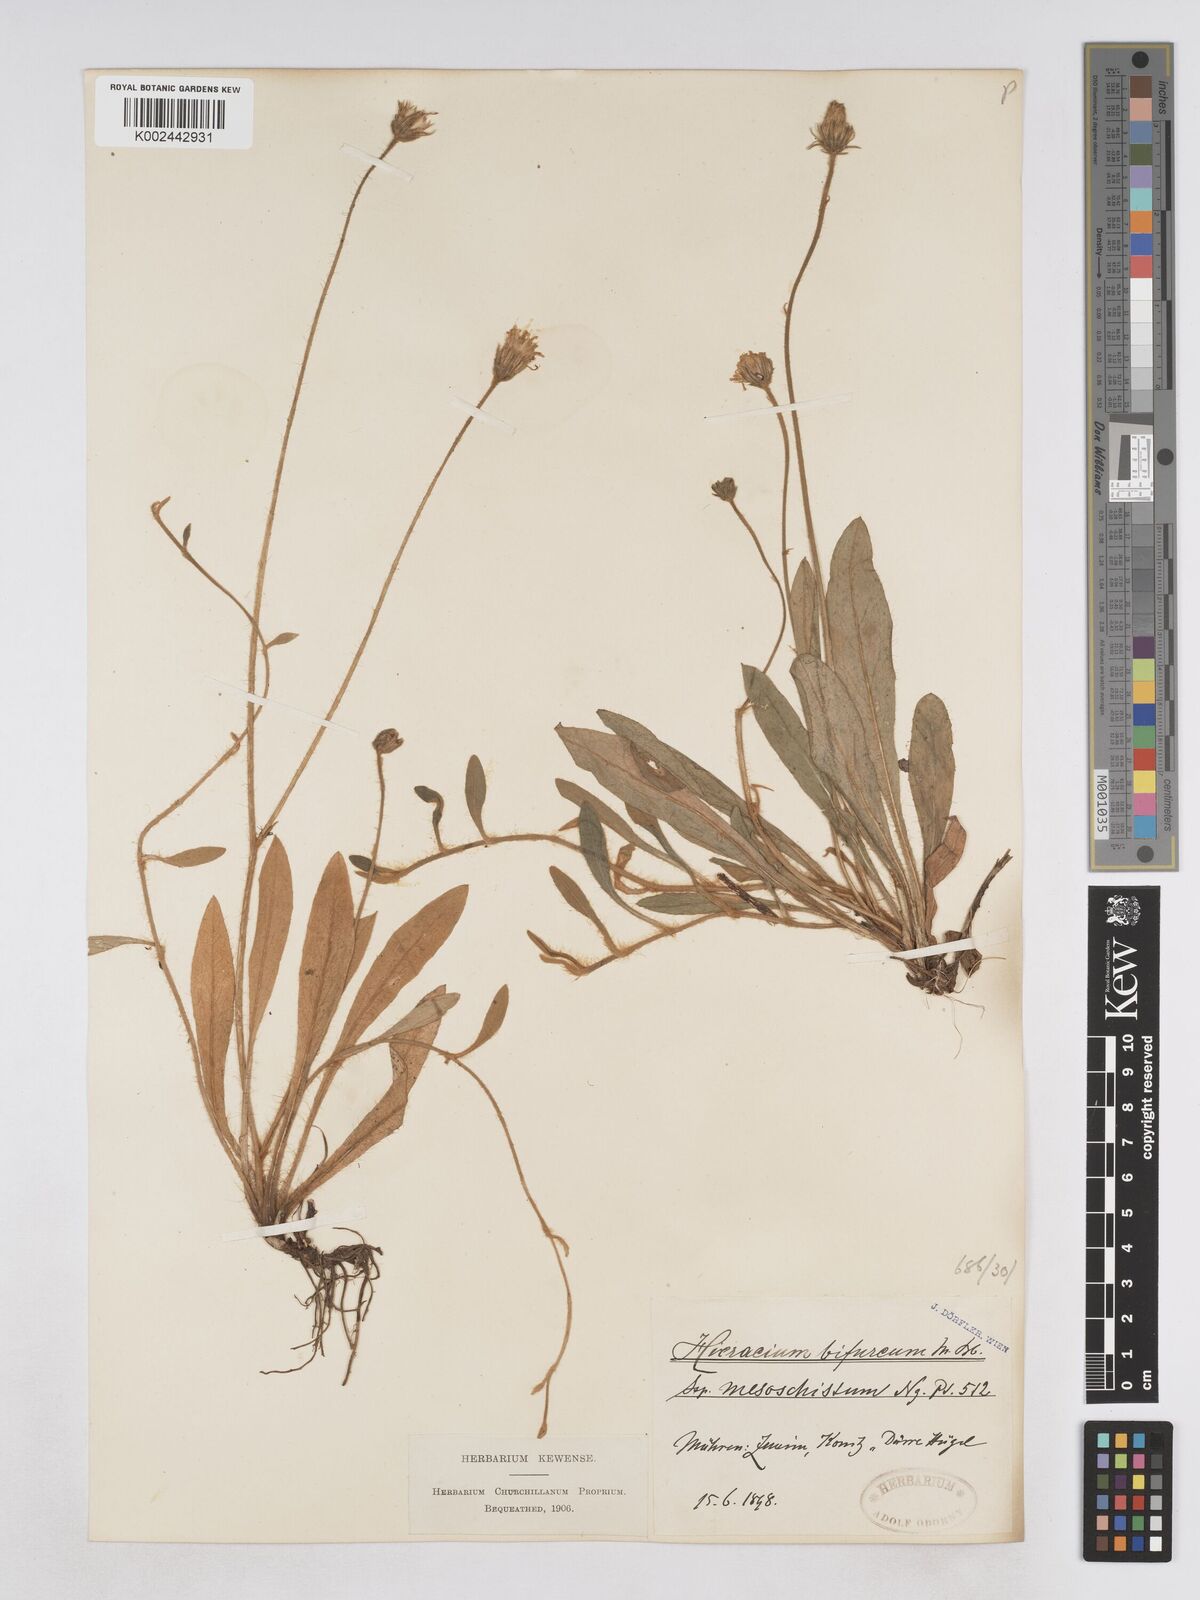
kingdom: Plantae
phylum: Tracheophyta
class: Magnoliopsida
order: Asterales
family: Asteraceae
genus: Pilosella
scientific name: Pilosella bifurca
